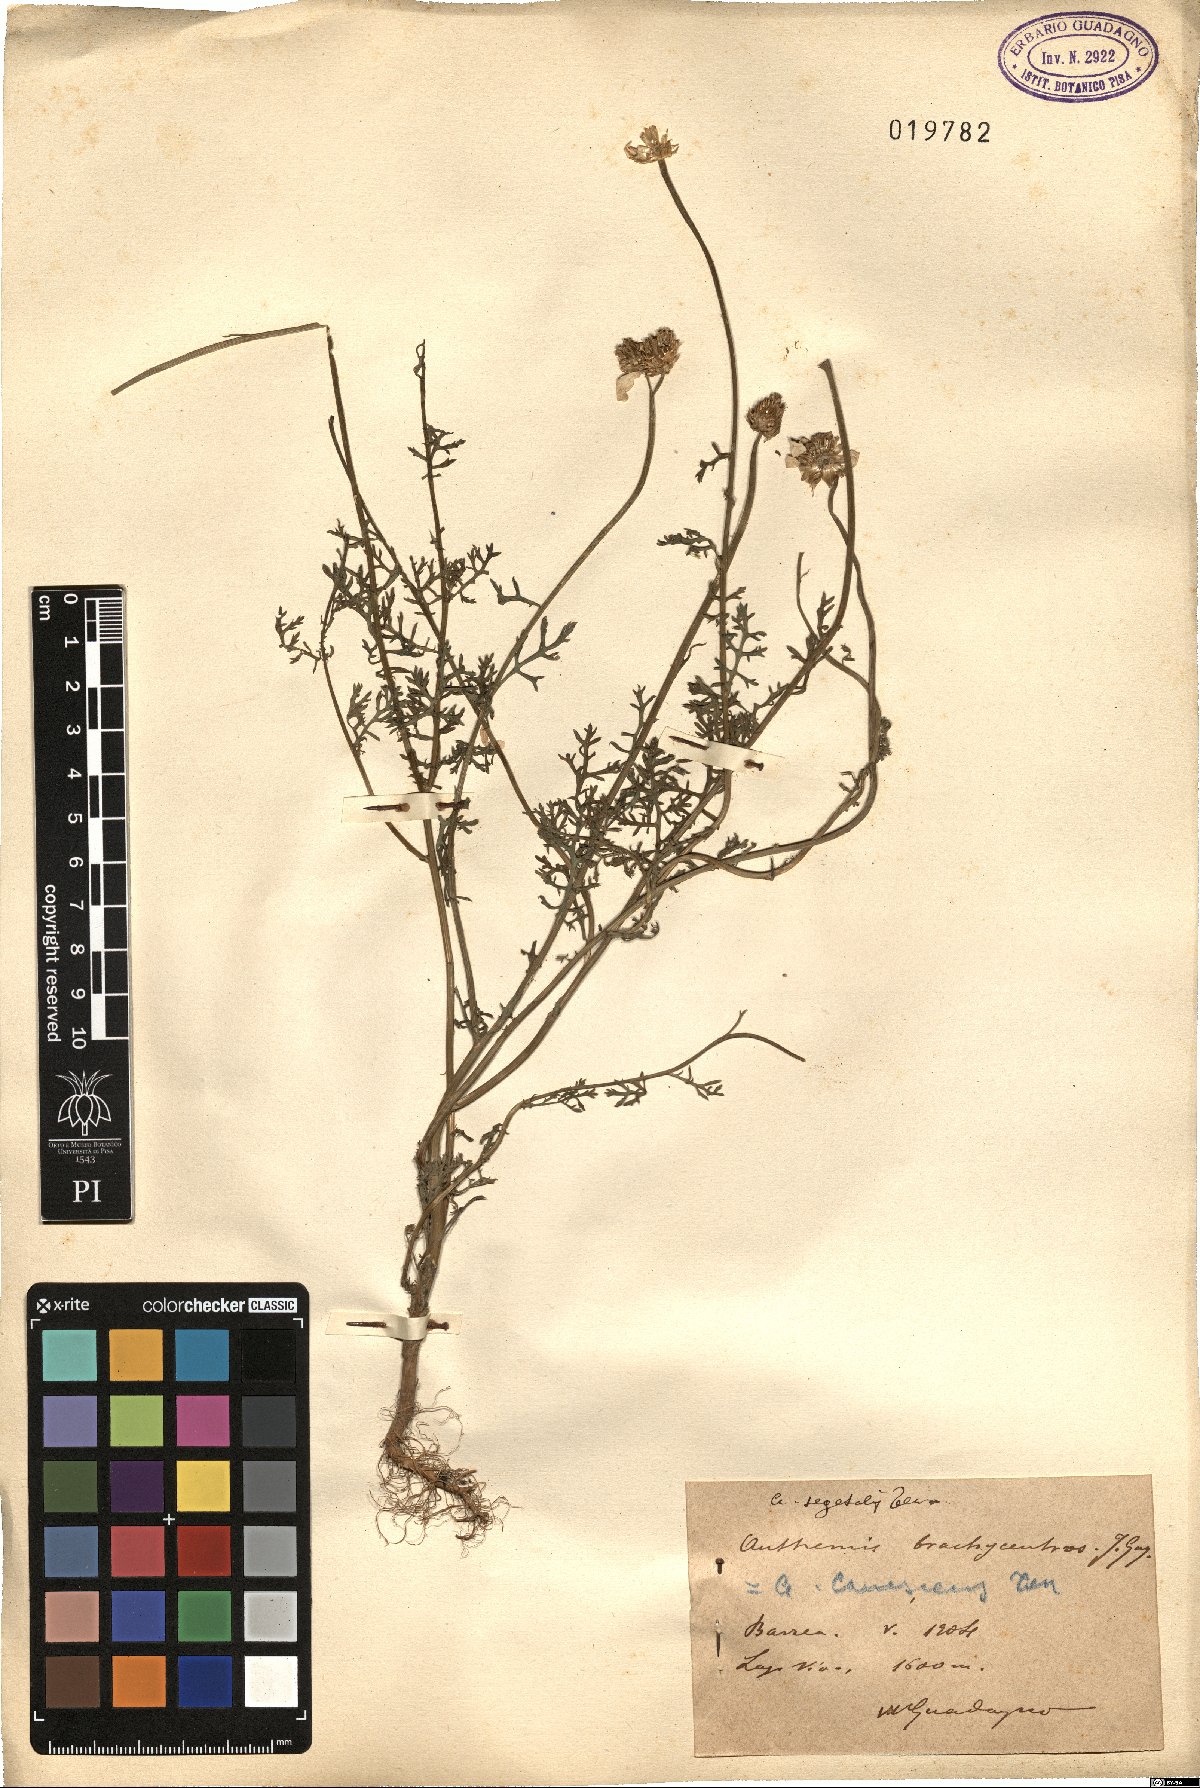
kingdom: Plantae
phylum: Tracheophyta
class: Magnoliopsida
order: Asterales
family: Asteraceae
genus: Cota
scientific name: Cota segetalis
